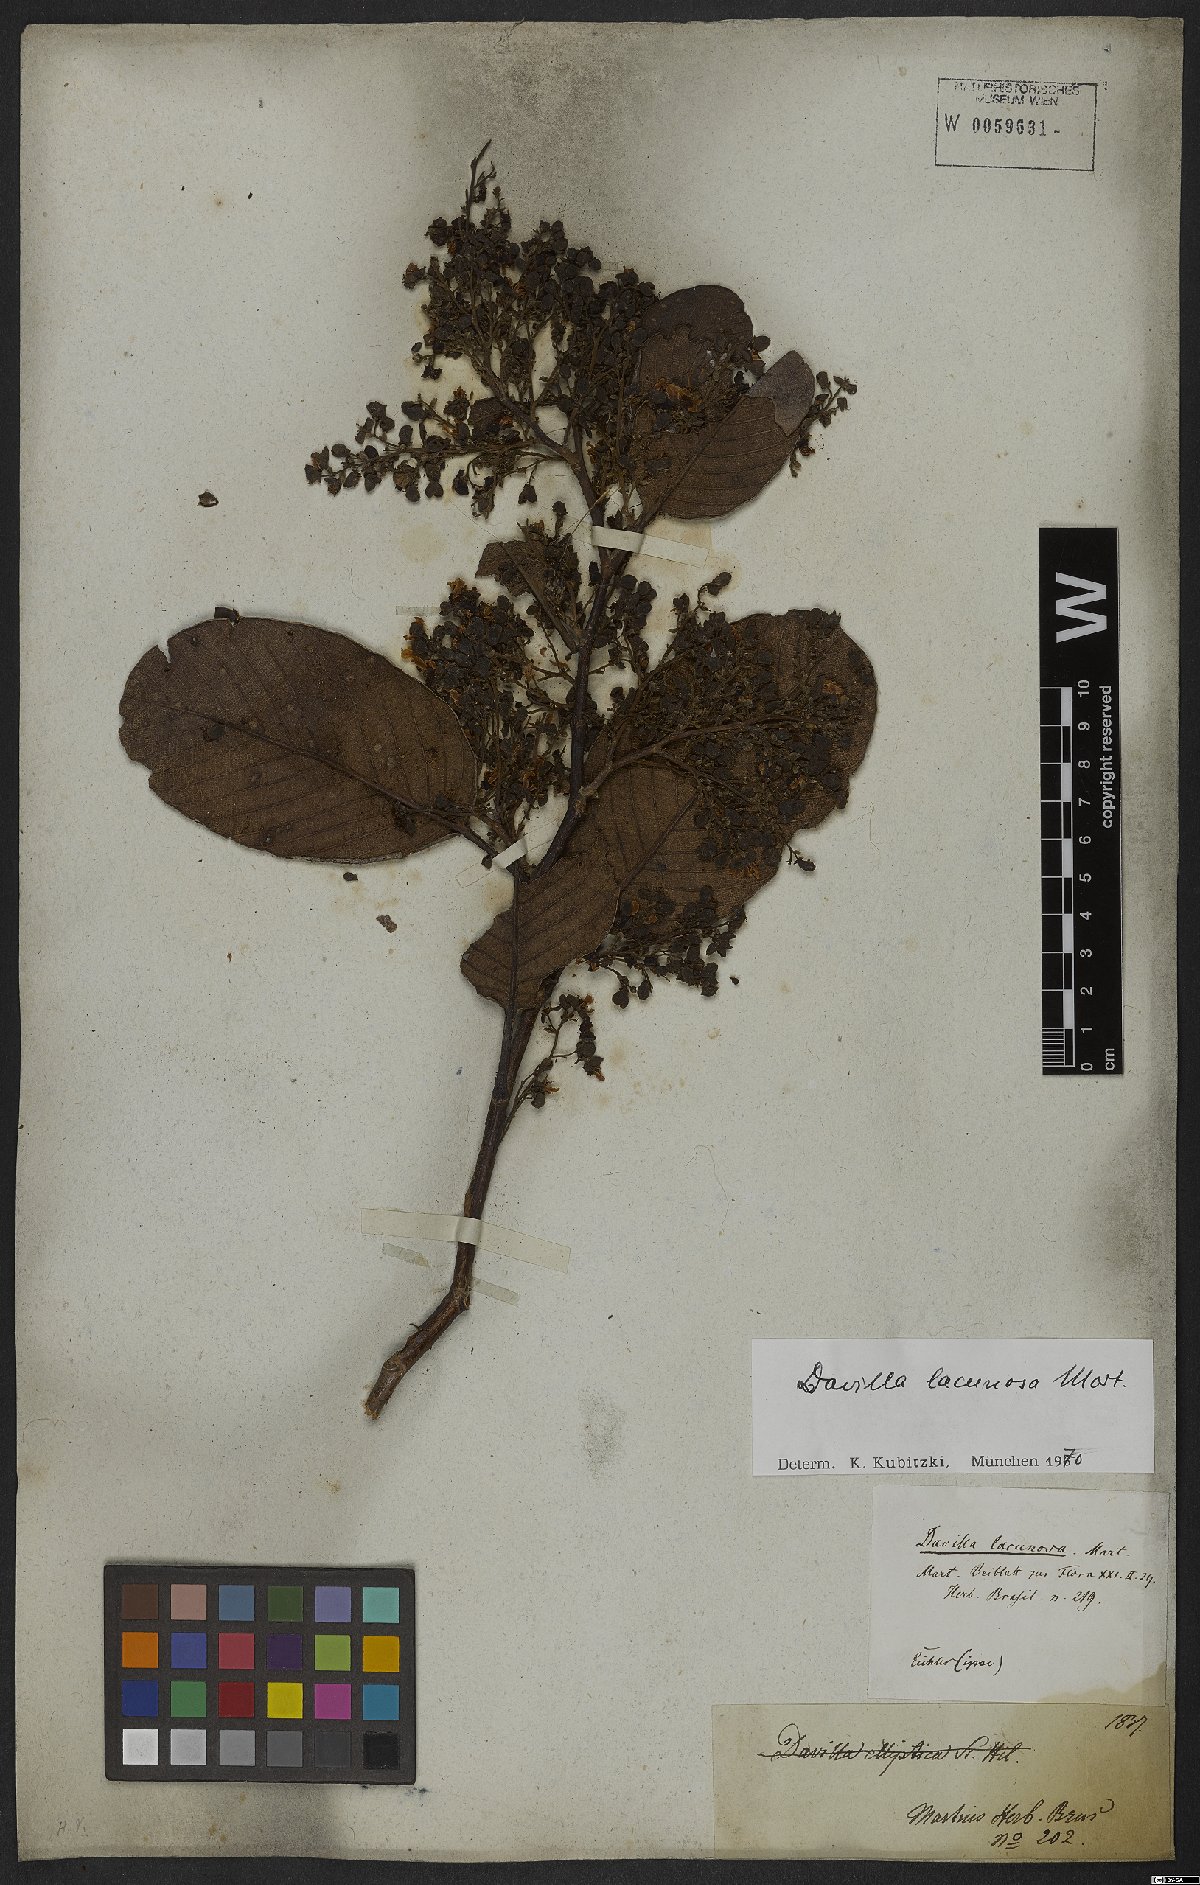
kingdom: Plantae
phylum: Tracheophyta
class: Magnoliopsida
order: Dilleniales
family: Dilleniaceae
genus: Davilla
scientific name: Davilla lacunosa
